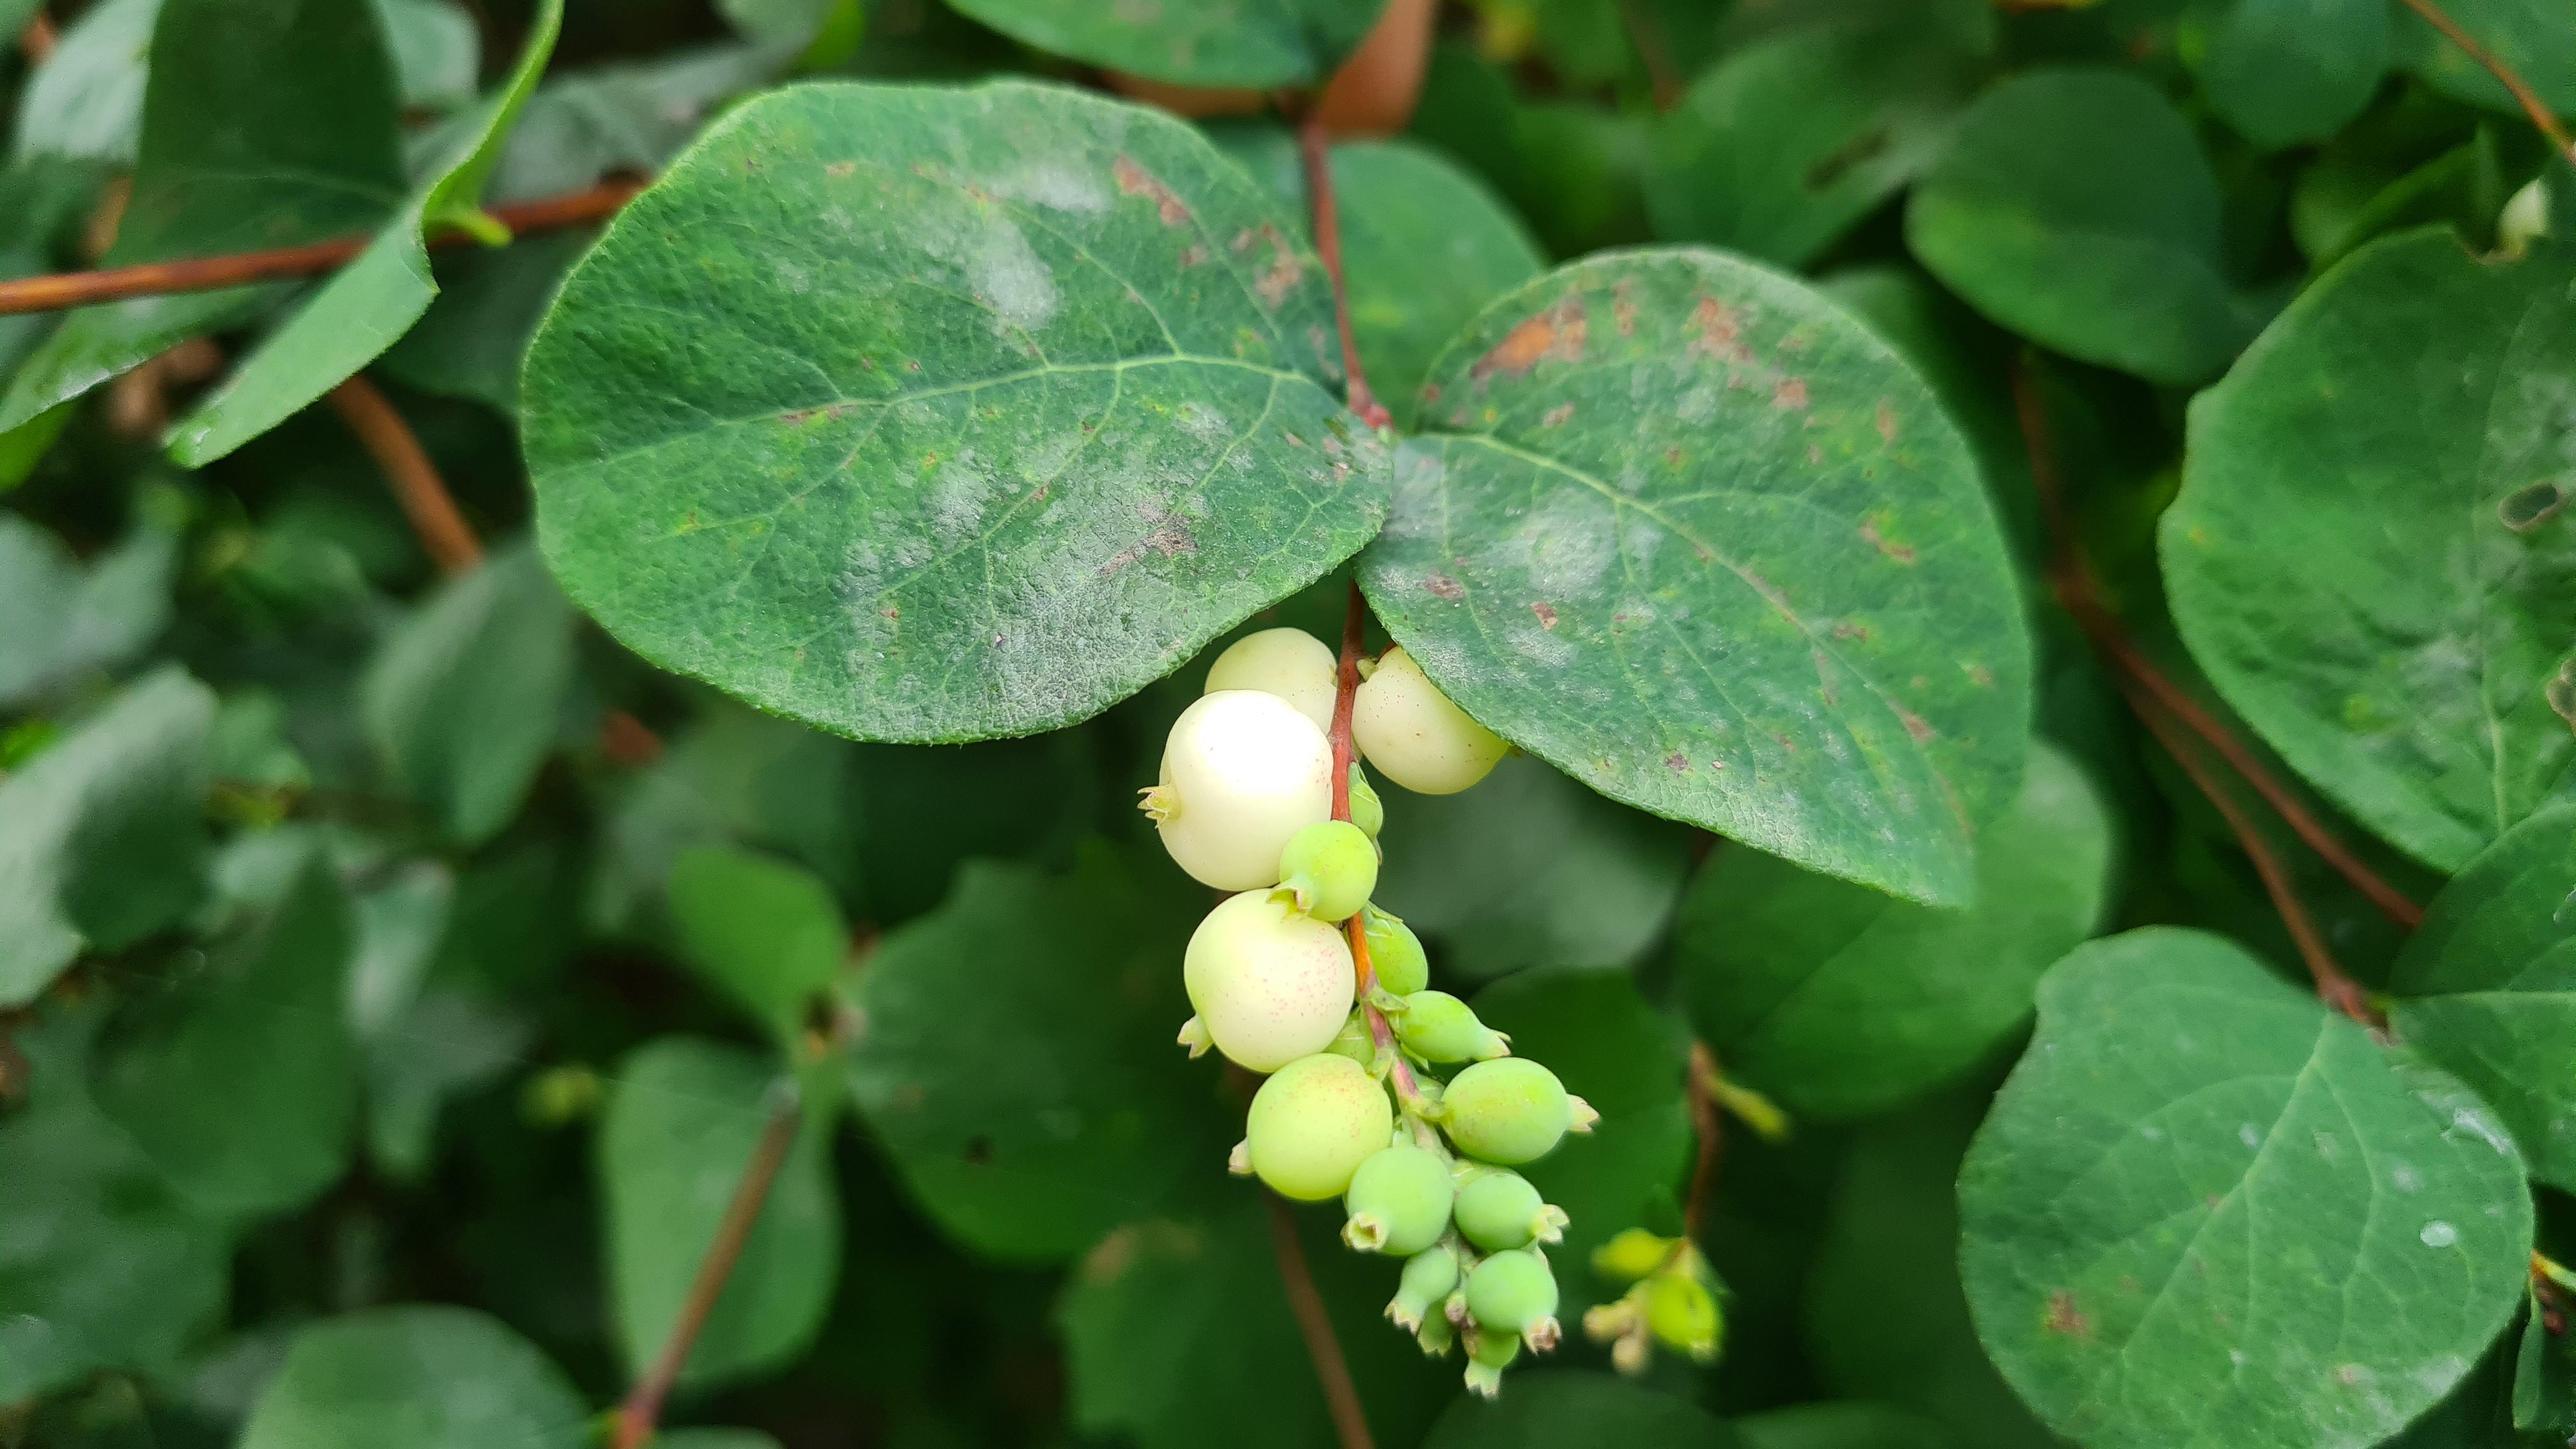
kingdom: Fungi
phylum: Ascomycota
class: Leotiomycetes
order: Helotiales
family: Erysiphaceae
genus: Erysiphe
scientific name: Erysiphe symphoricarpi
